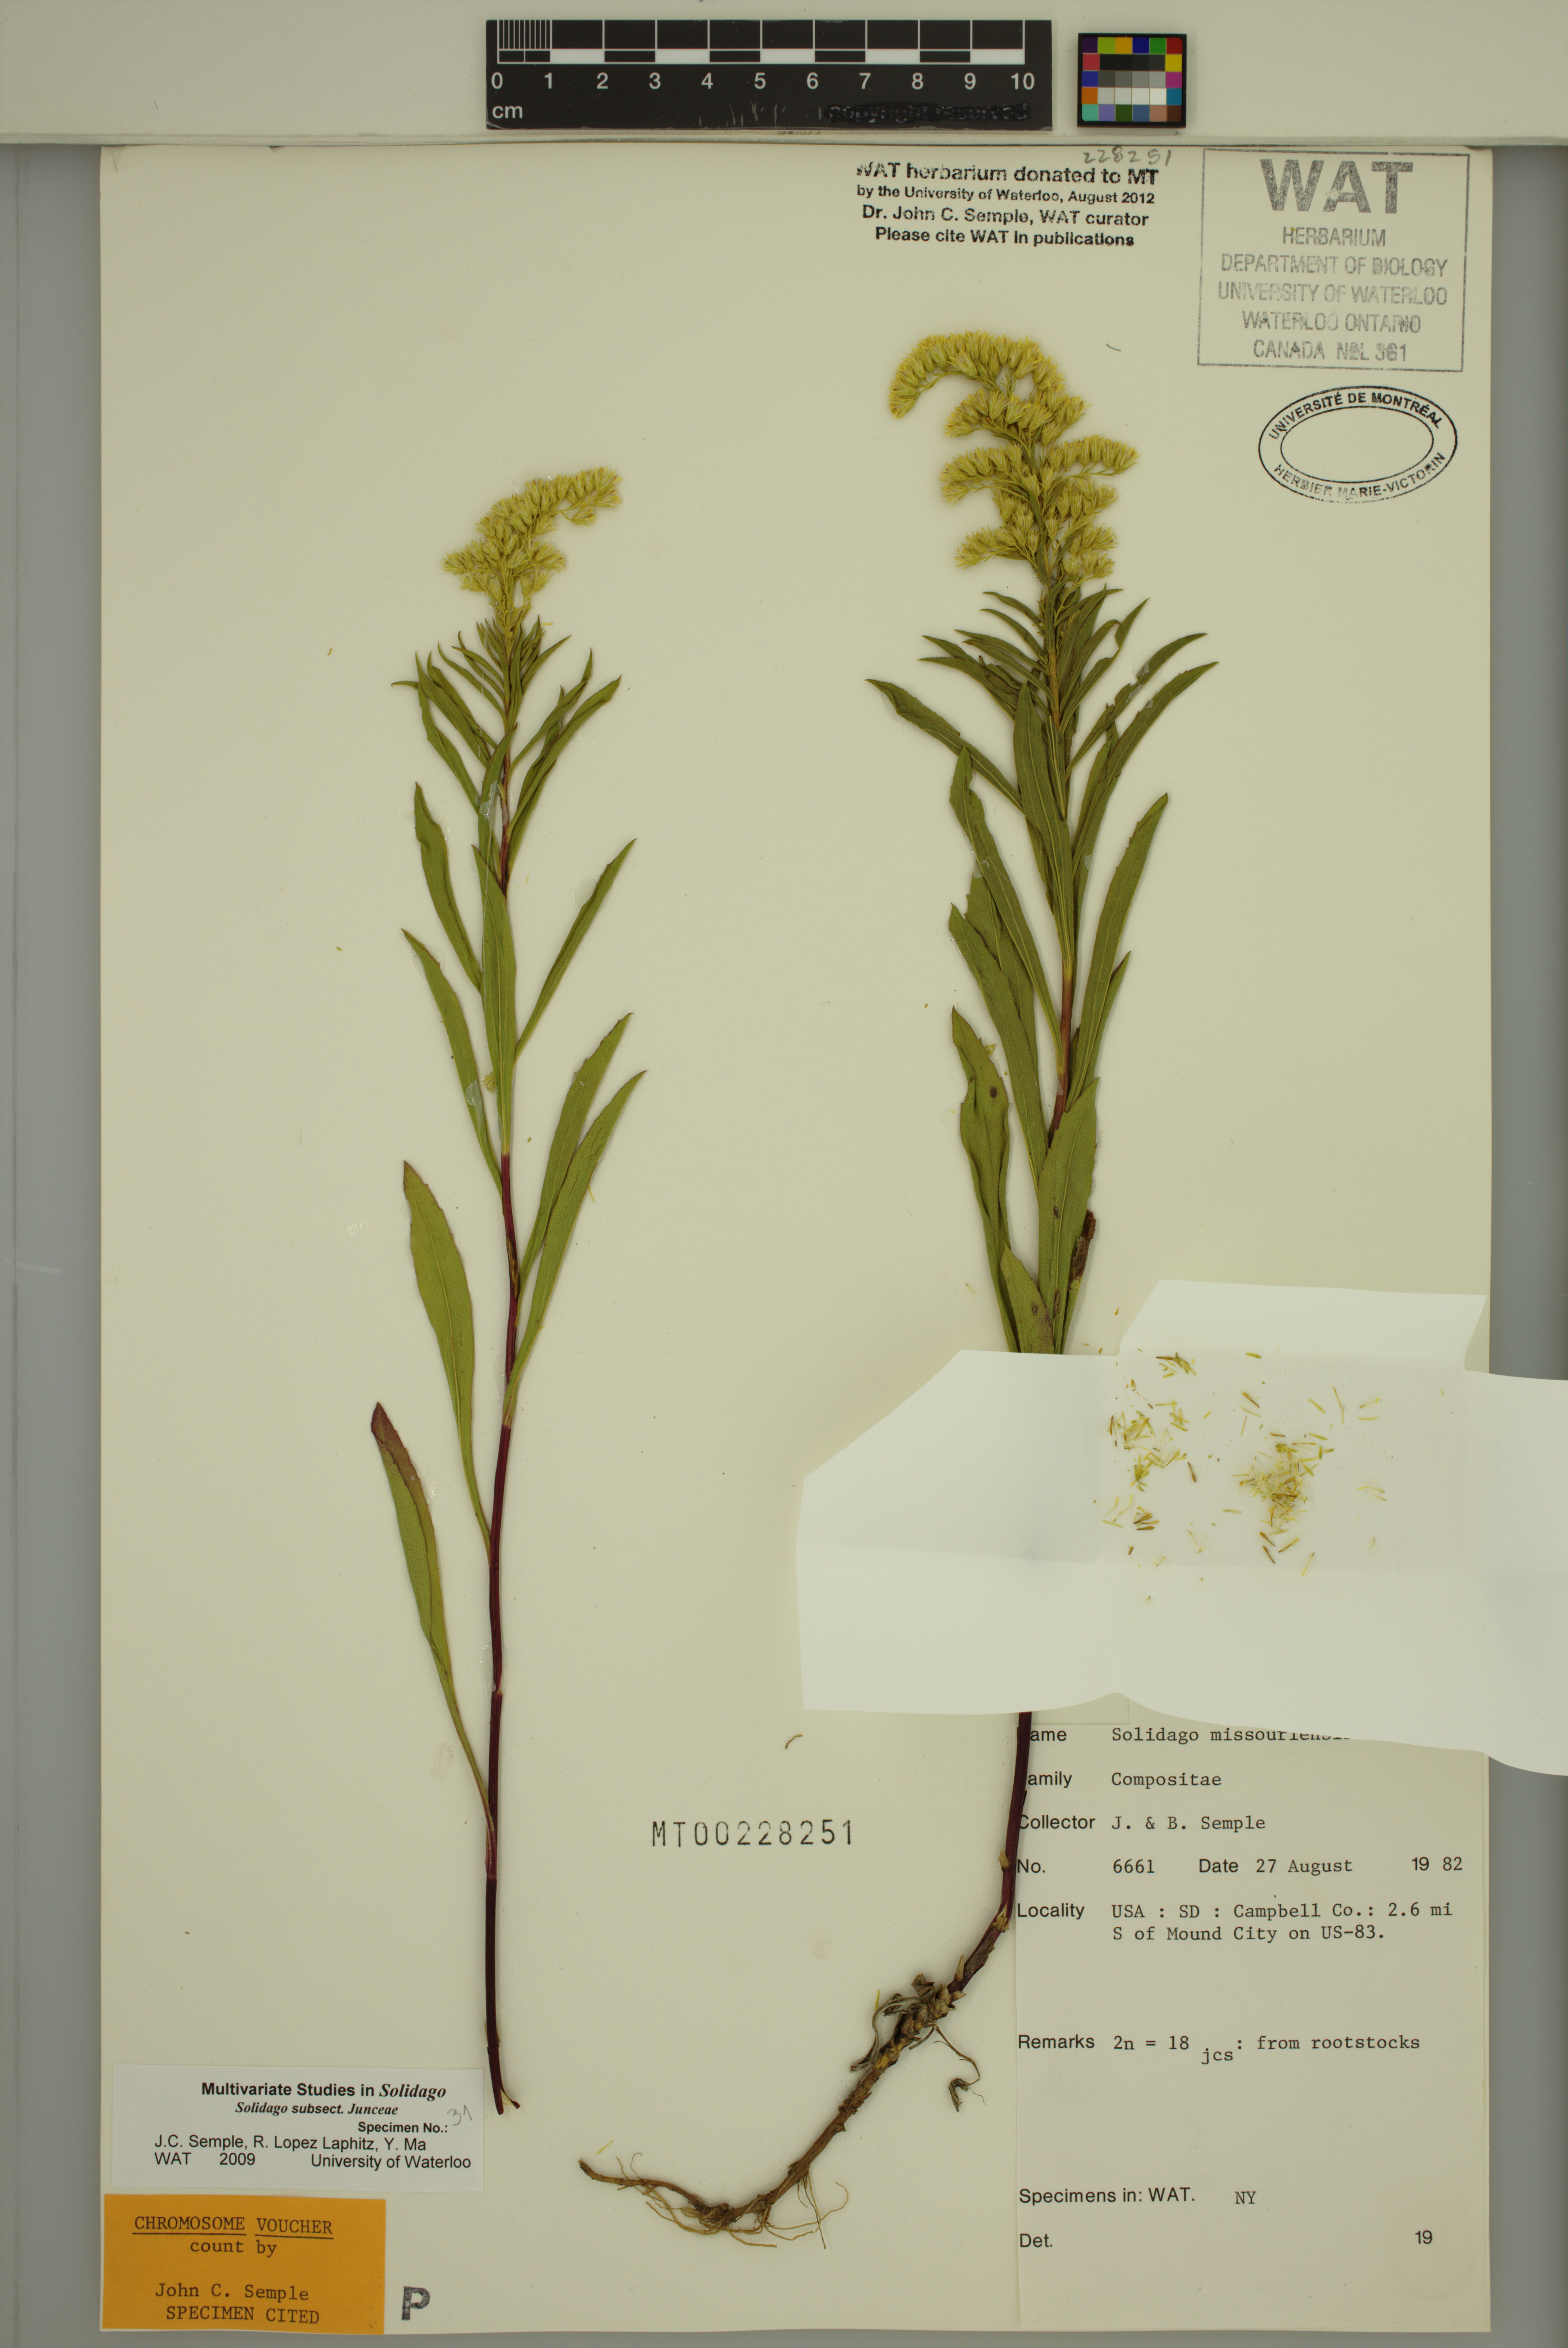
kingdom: Plantae
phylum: Tracheophyta
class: Magnoliopsida
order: Asterales
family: Asteraceae
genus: Solidago
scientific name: Solidago missouriensis
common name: Prairie goldenrod
